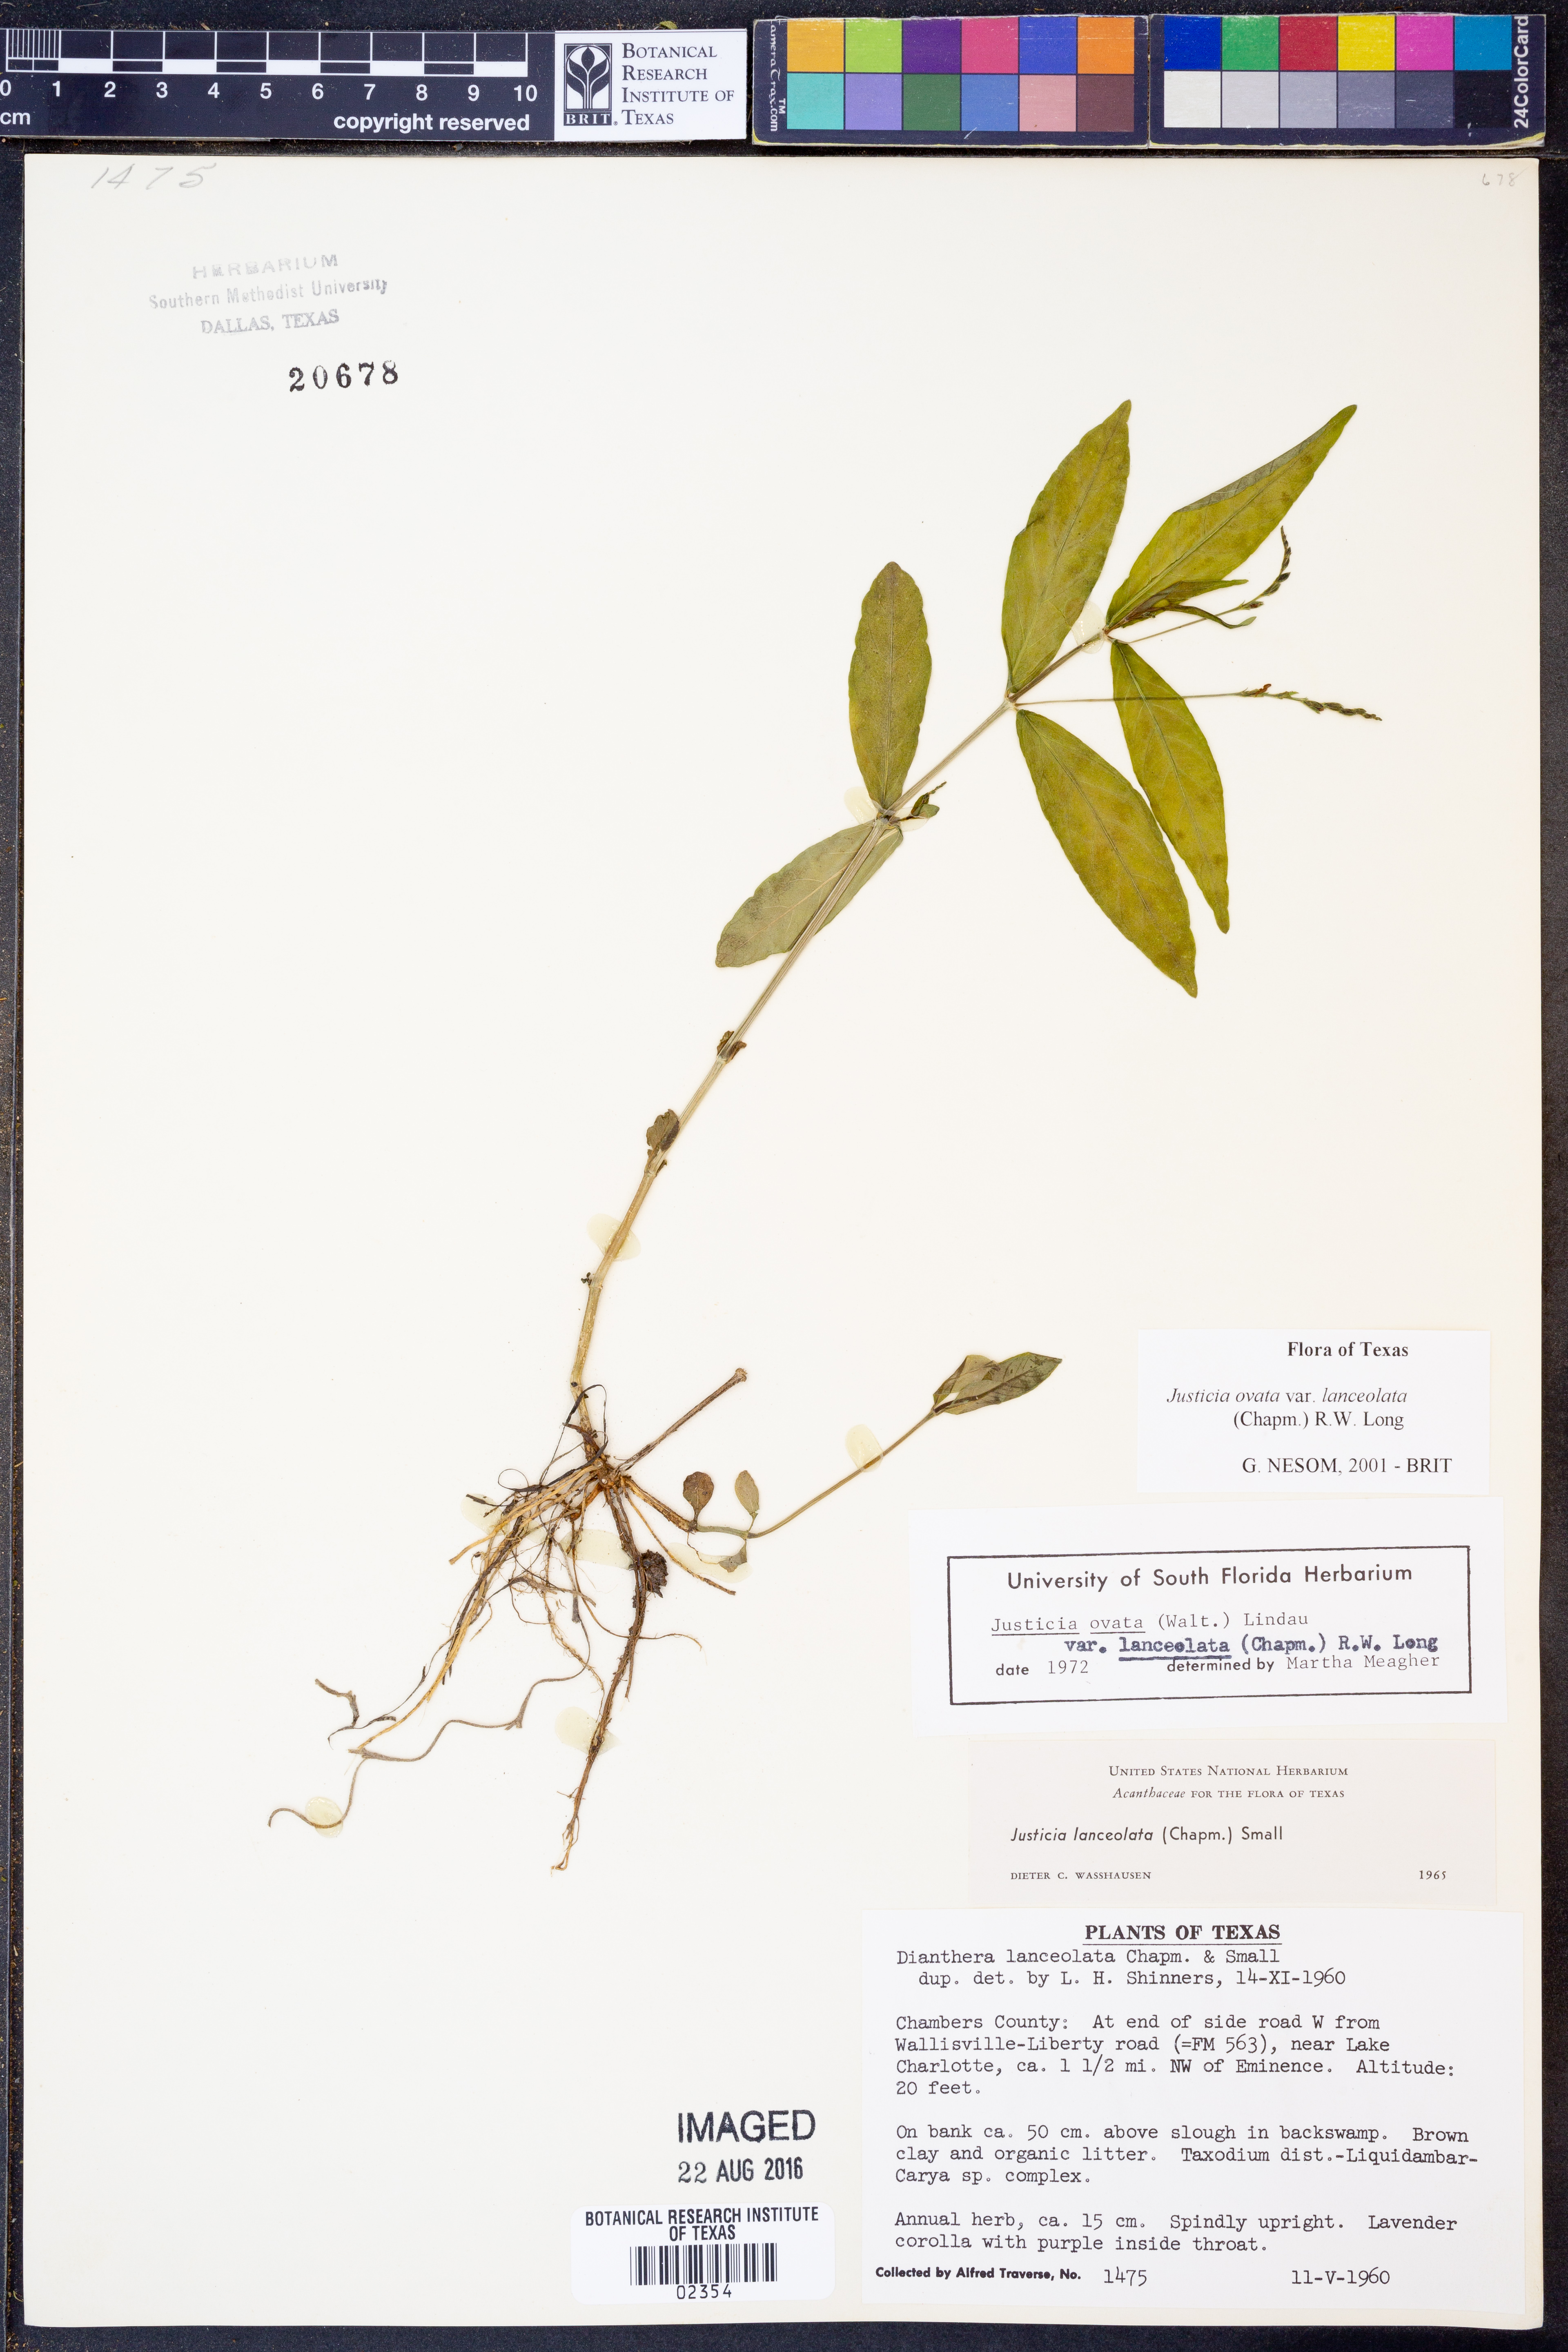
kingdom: Plantae
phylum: Tracheophyta
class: Magnoliopsida
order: Lamiales
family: Acanthaceae
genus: Justicia
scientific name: Justicia lanceolata
